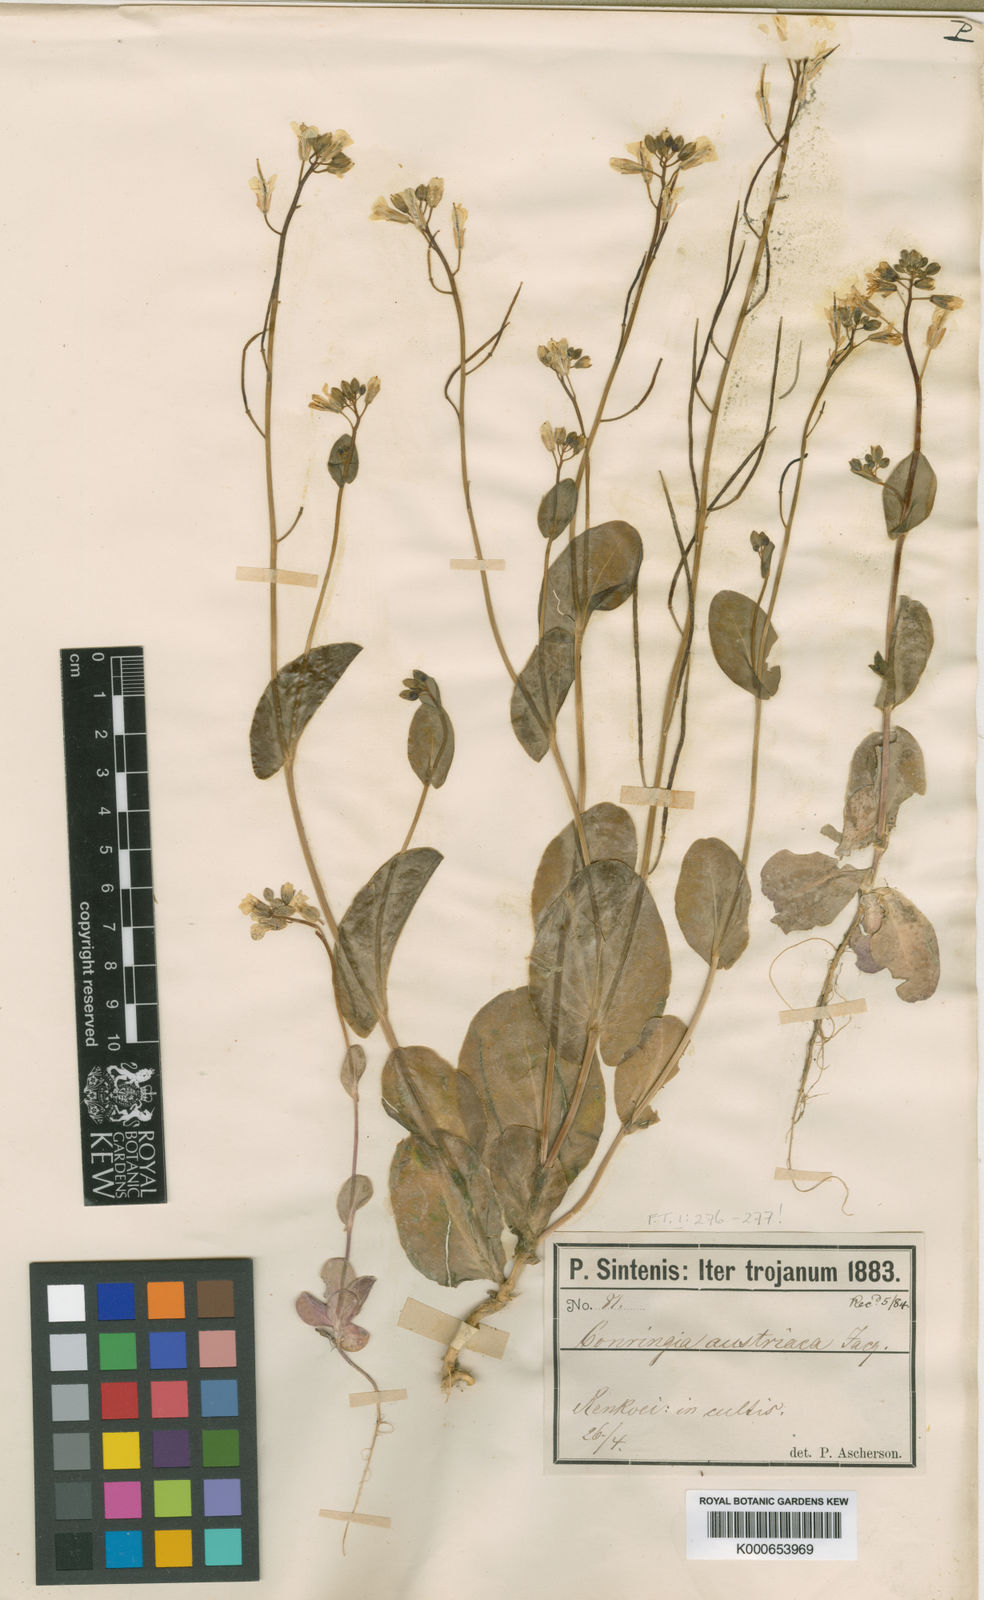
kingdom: Plantae
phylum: Tracheophyta
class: Magnoliopsida
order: Brassicales
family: Brassicaceae
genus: Conringia
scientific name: Conringia orientalis
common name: Hare's ear mustard
